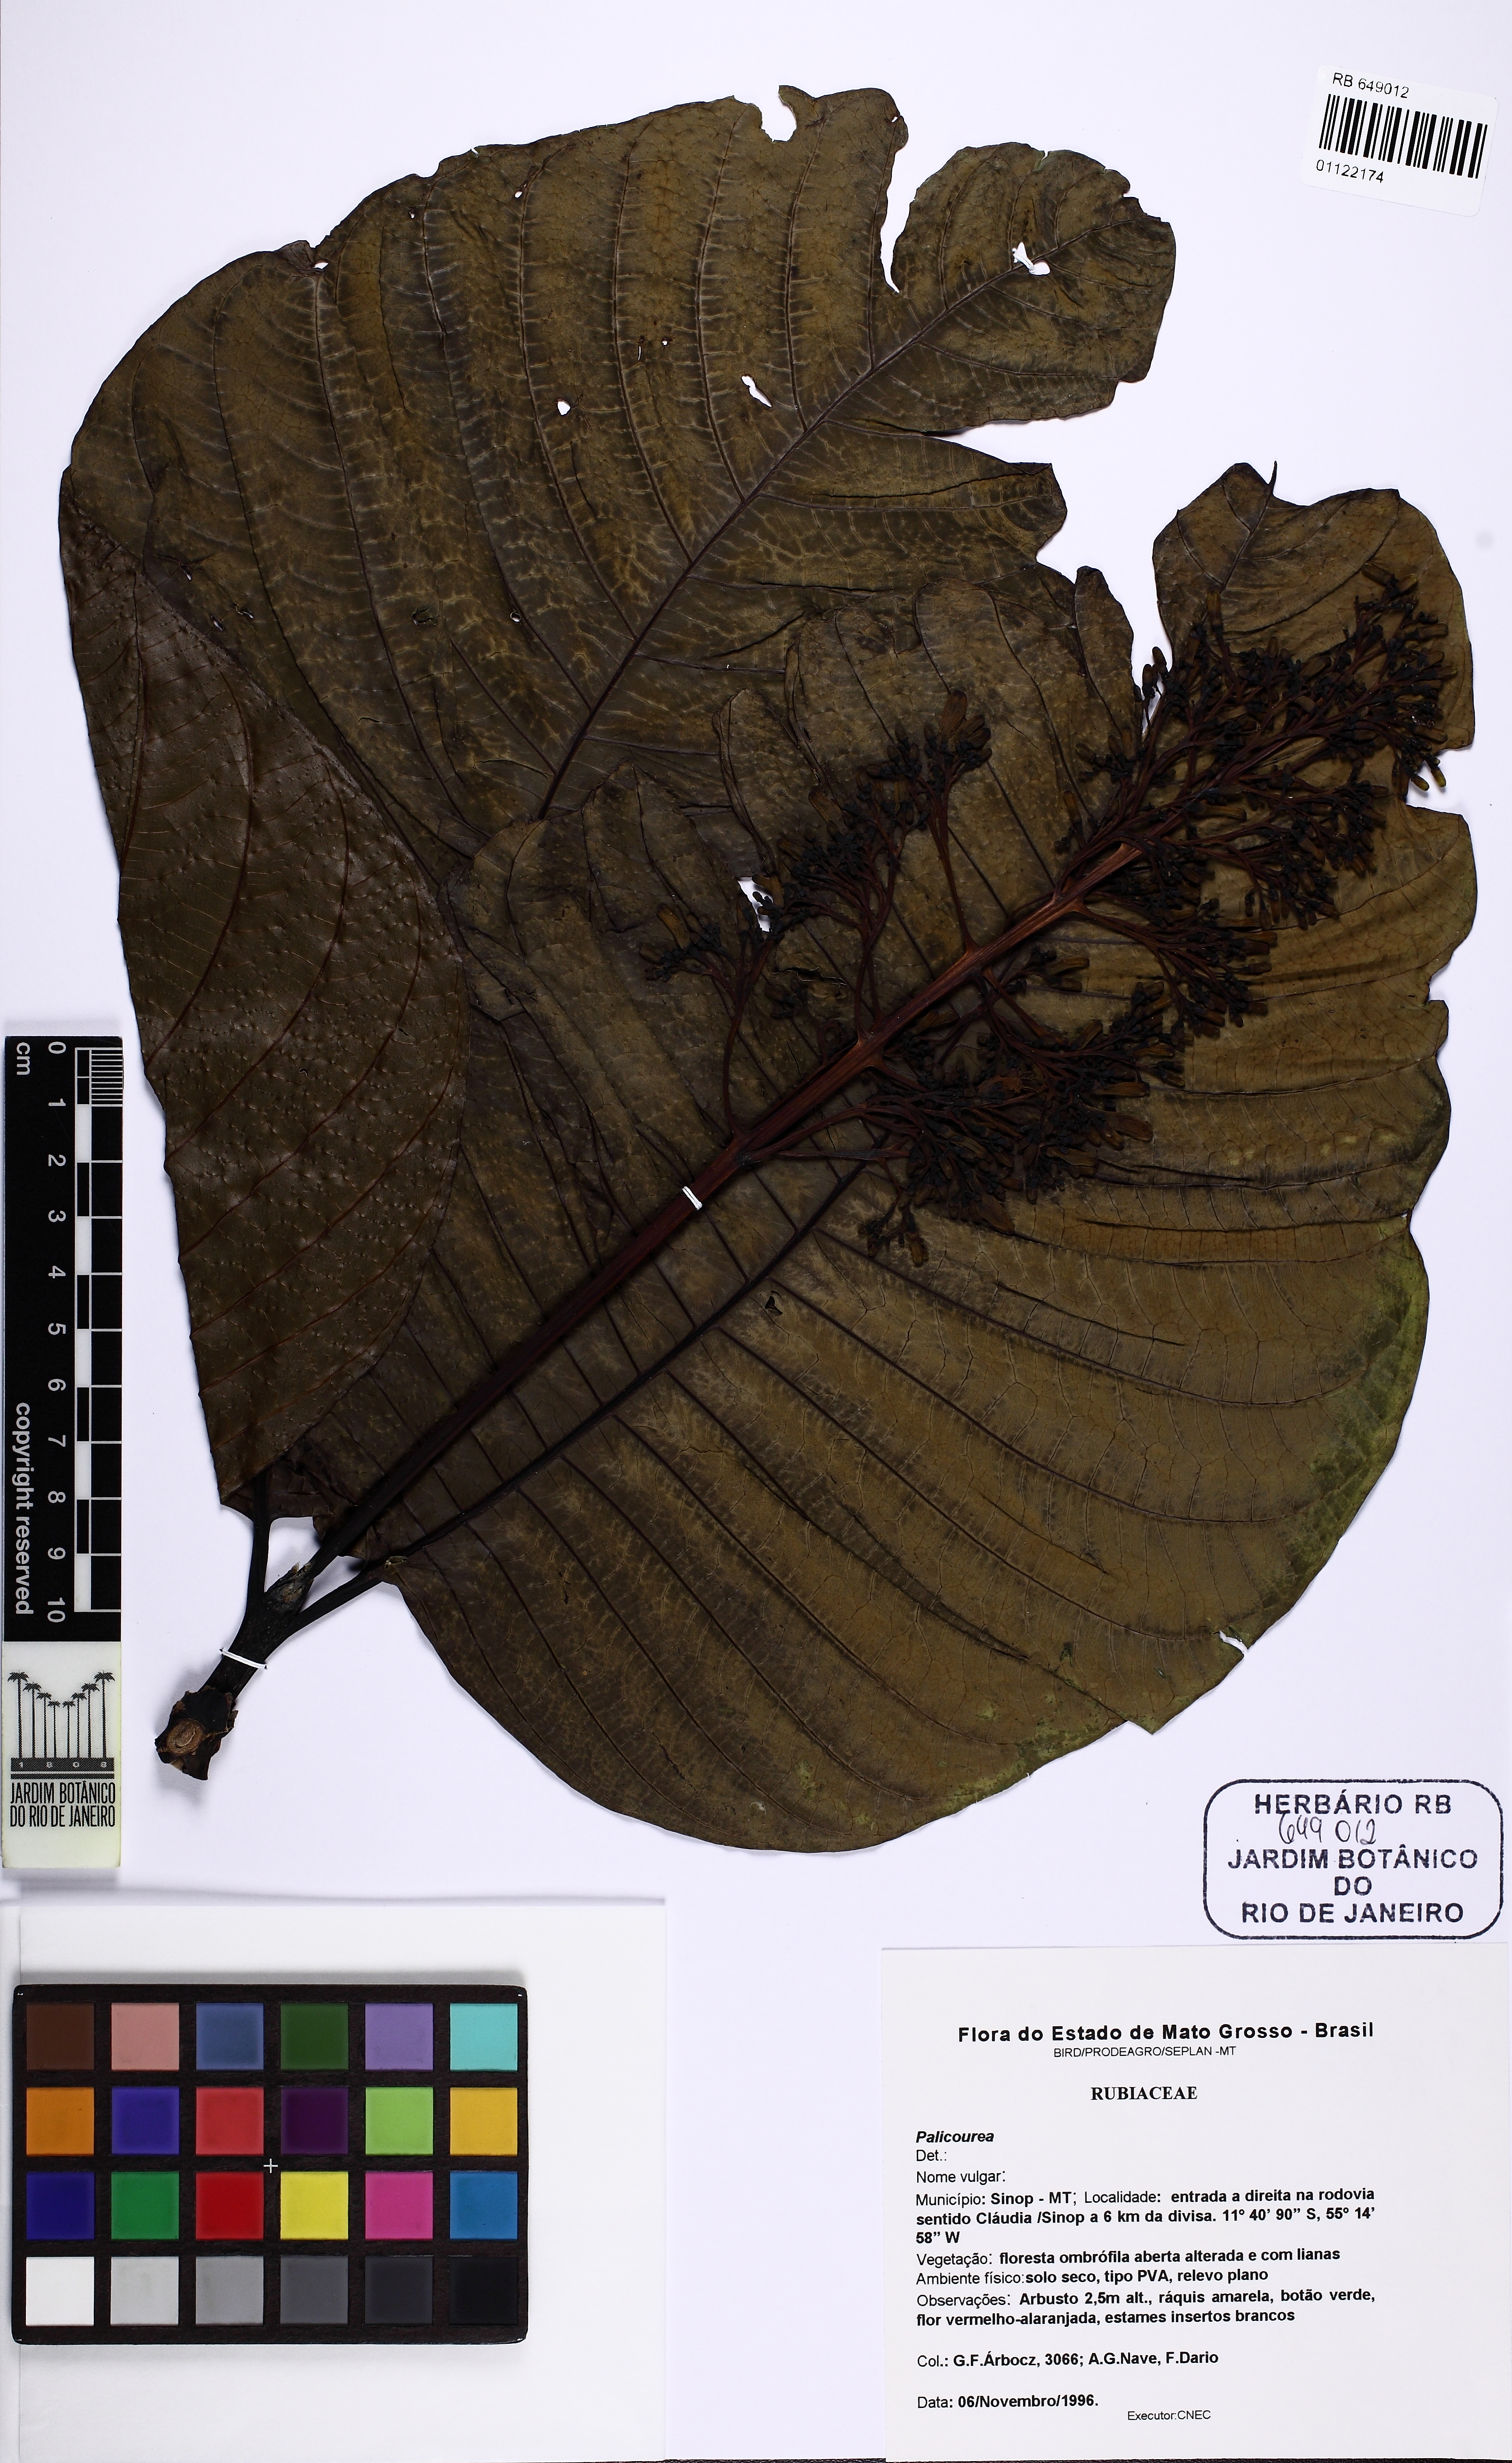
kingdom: Plantae
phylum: Tracheophyta
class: Magnoliopsida
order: Gentianales
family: Rubiaceae
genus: Palicourea
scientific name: Palicourea rigida
